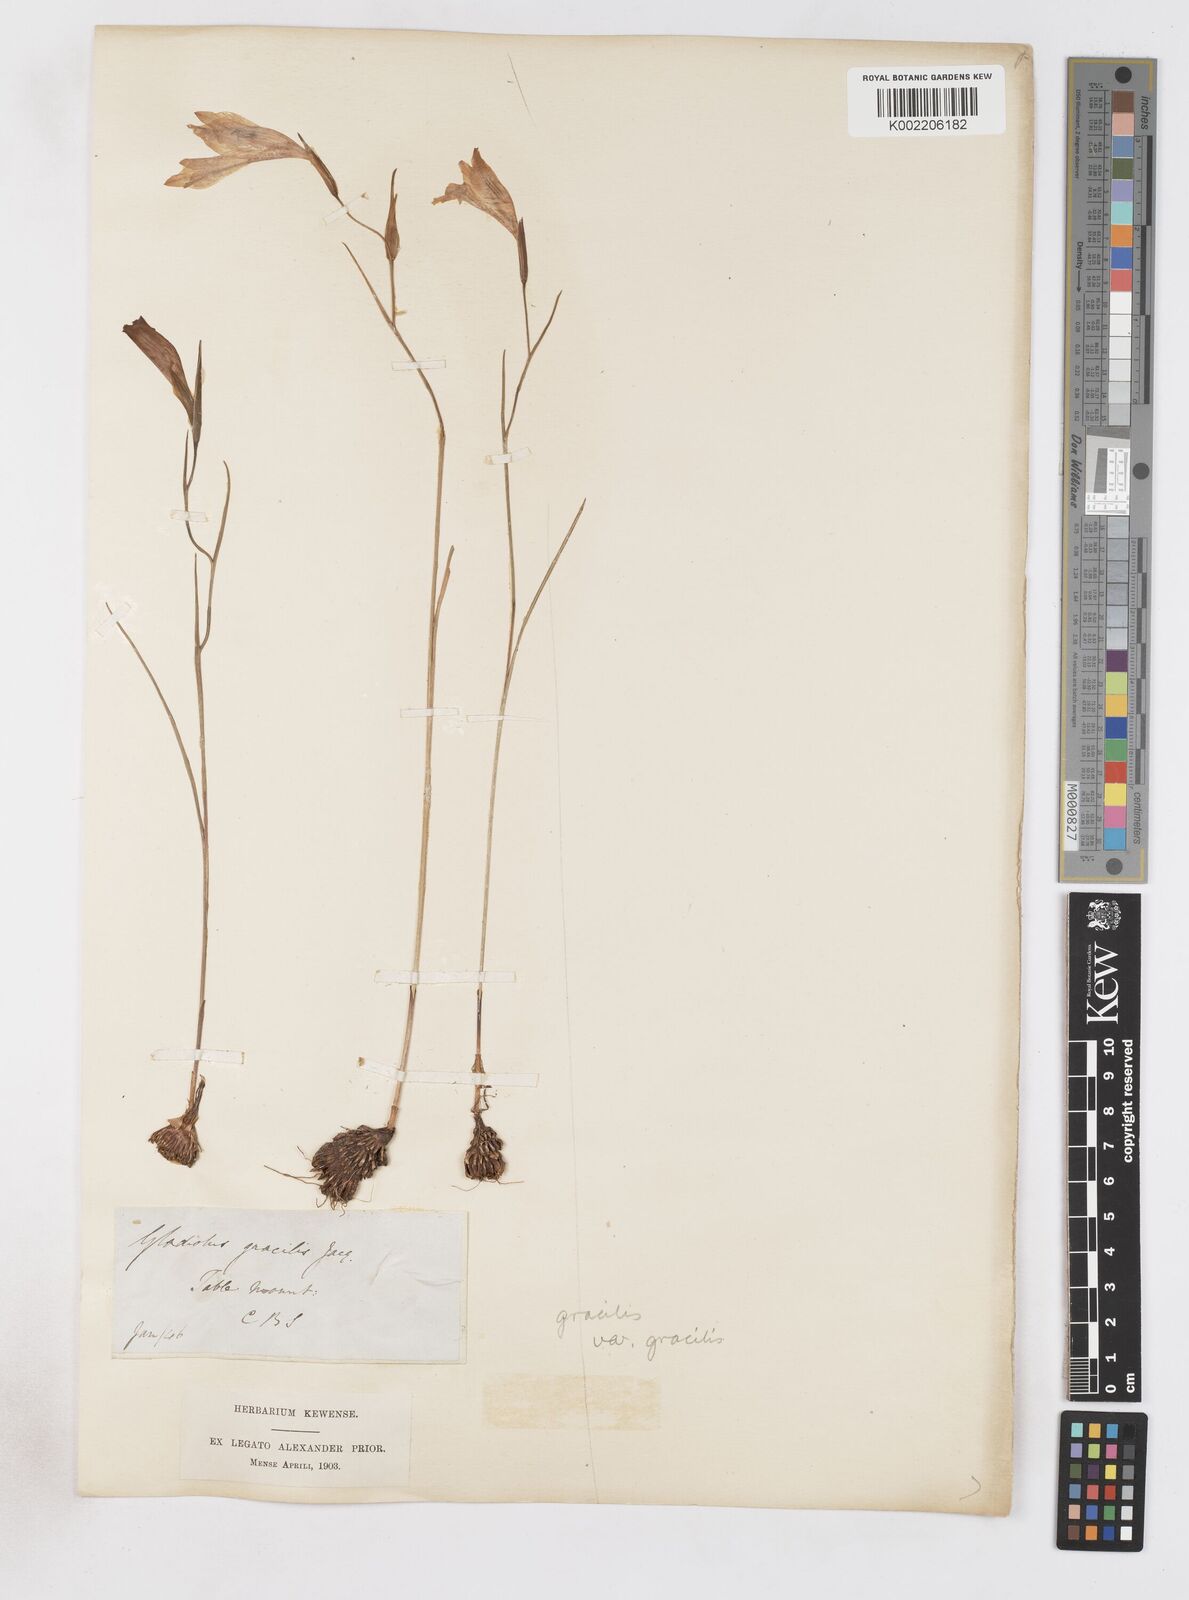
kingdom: Plantae
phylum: Tracheophyta
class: Liliopsida
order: Asparagales
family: Iridaceae
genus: Gladiolus
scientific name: Gladiolus gracilis
